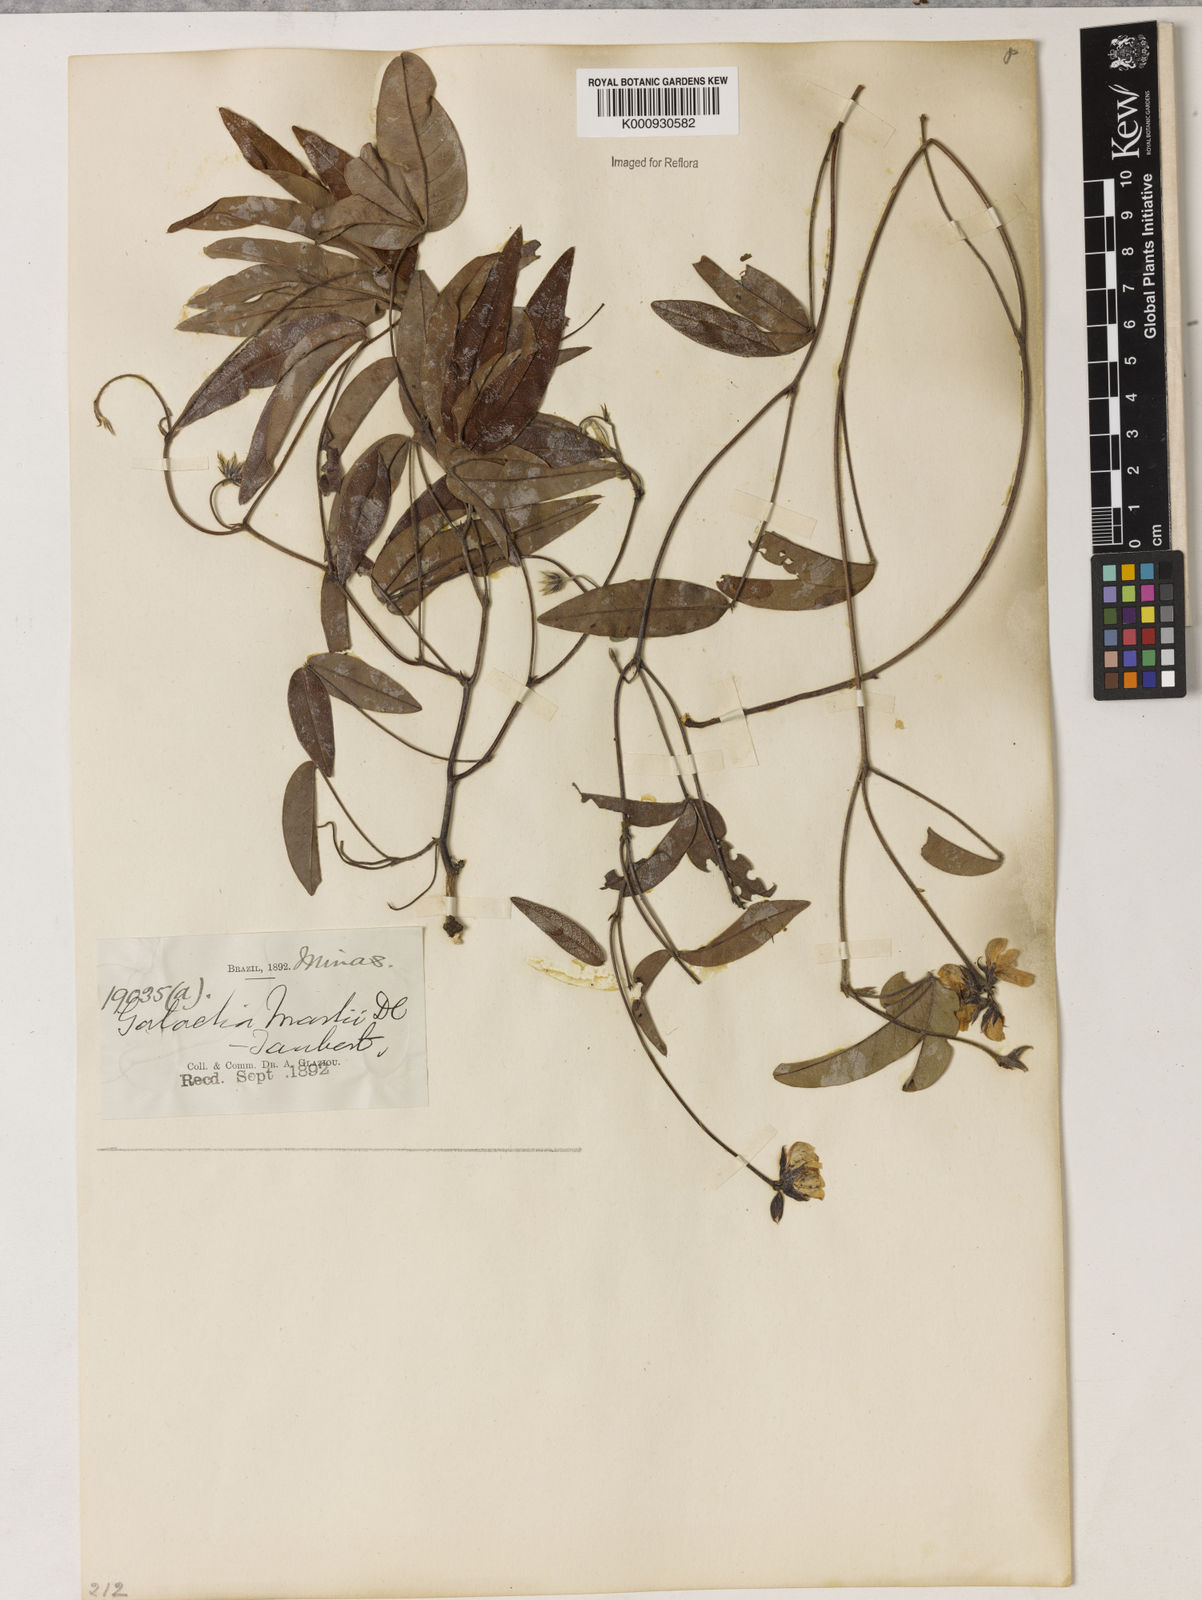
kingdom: Plantae
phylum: Tracheophyta
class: Magnoliopsida
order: Fabales
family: Fabaceae
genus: Betencourtia
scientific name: Betencourtia neesii
